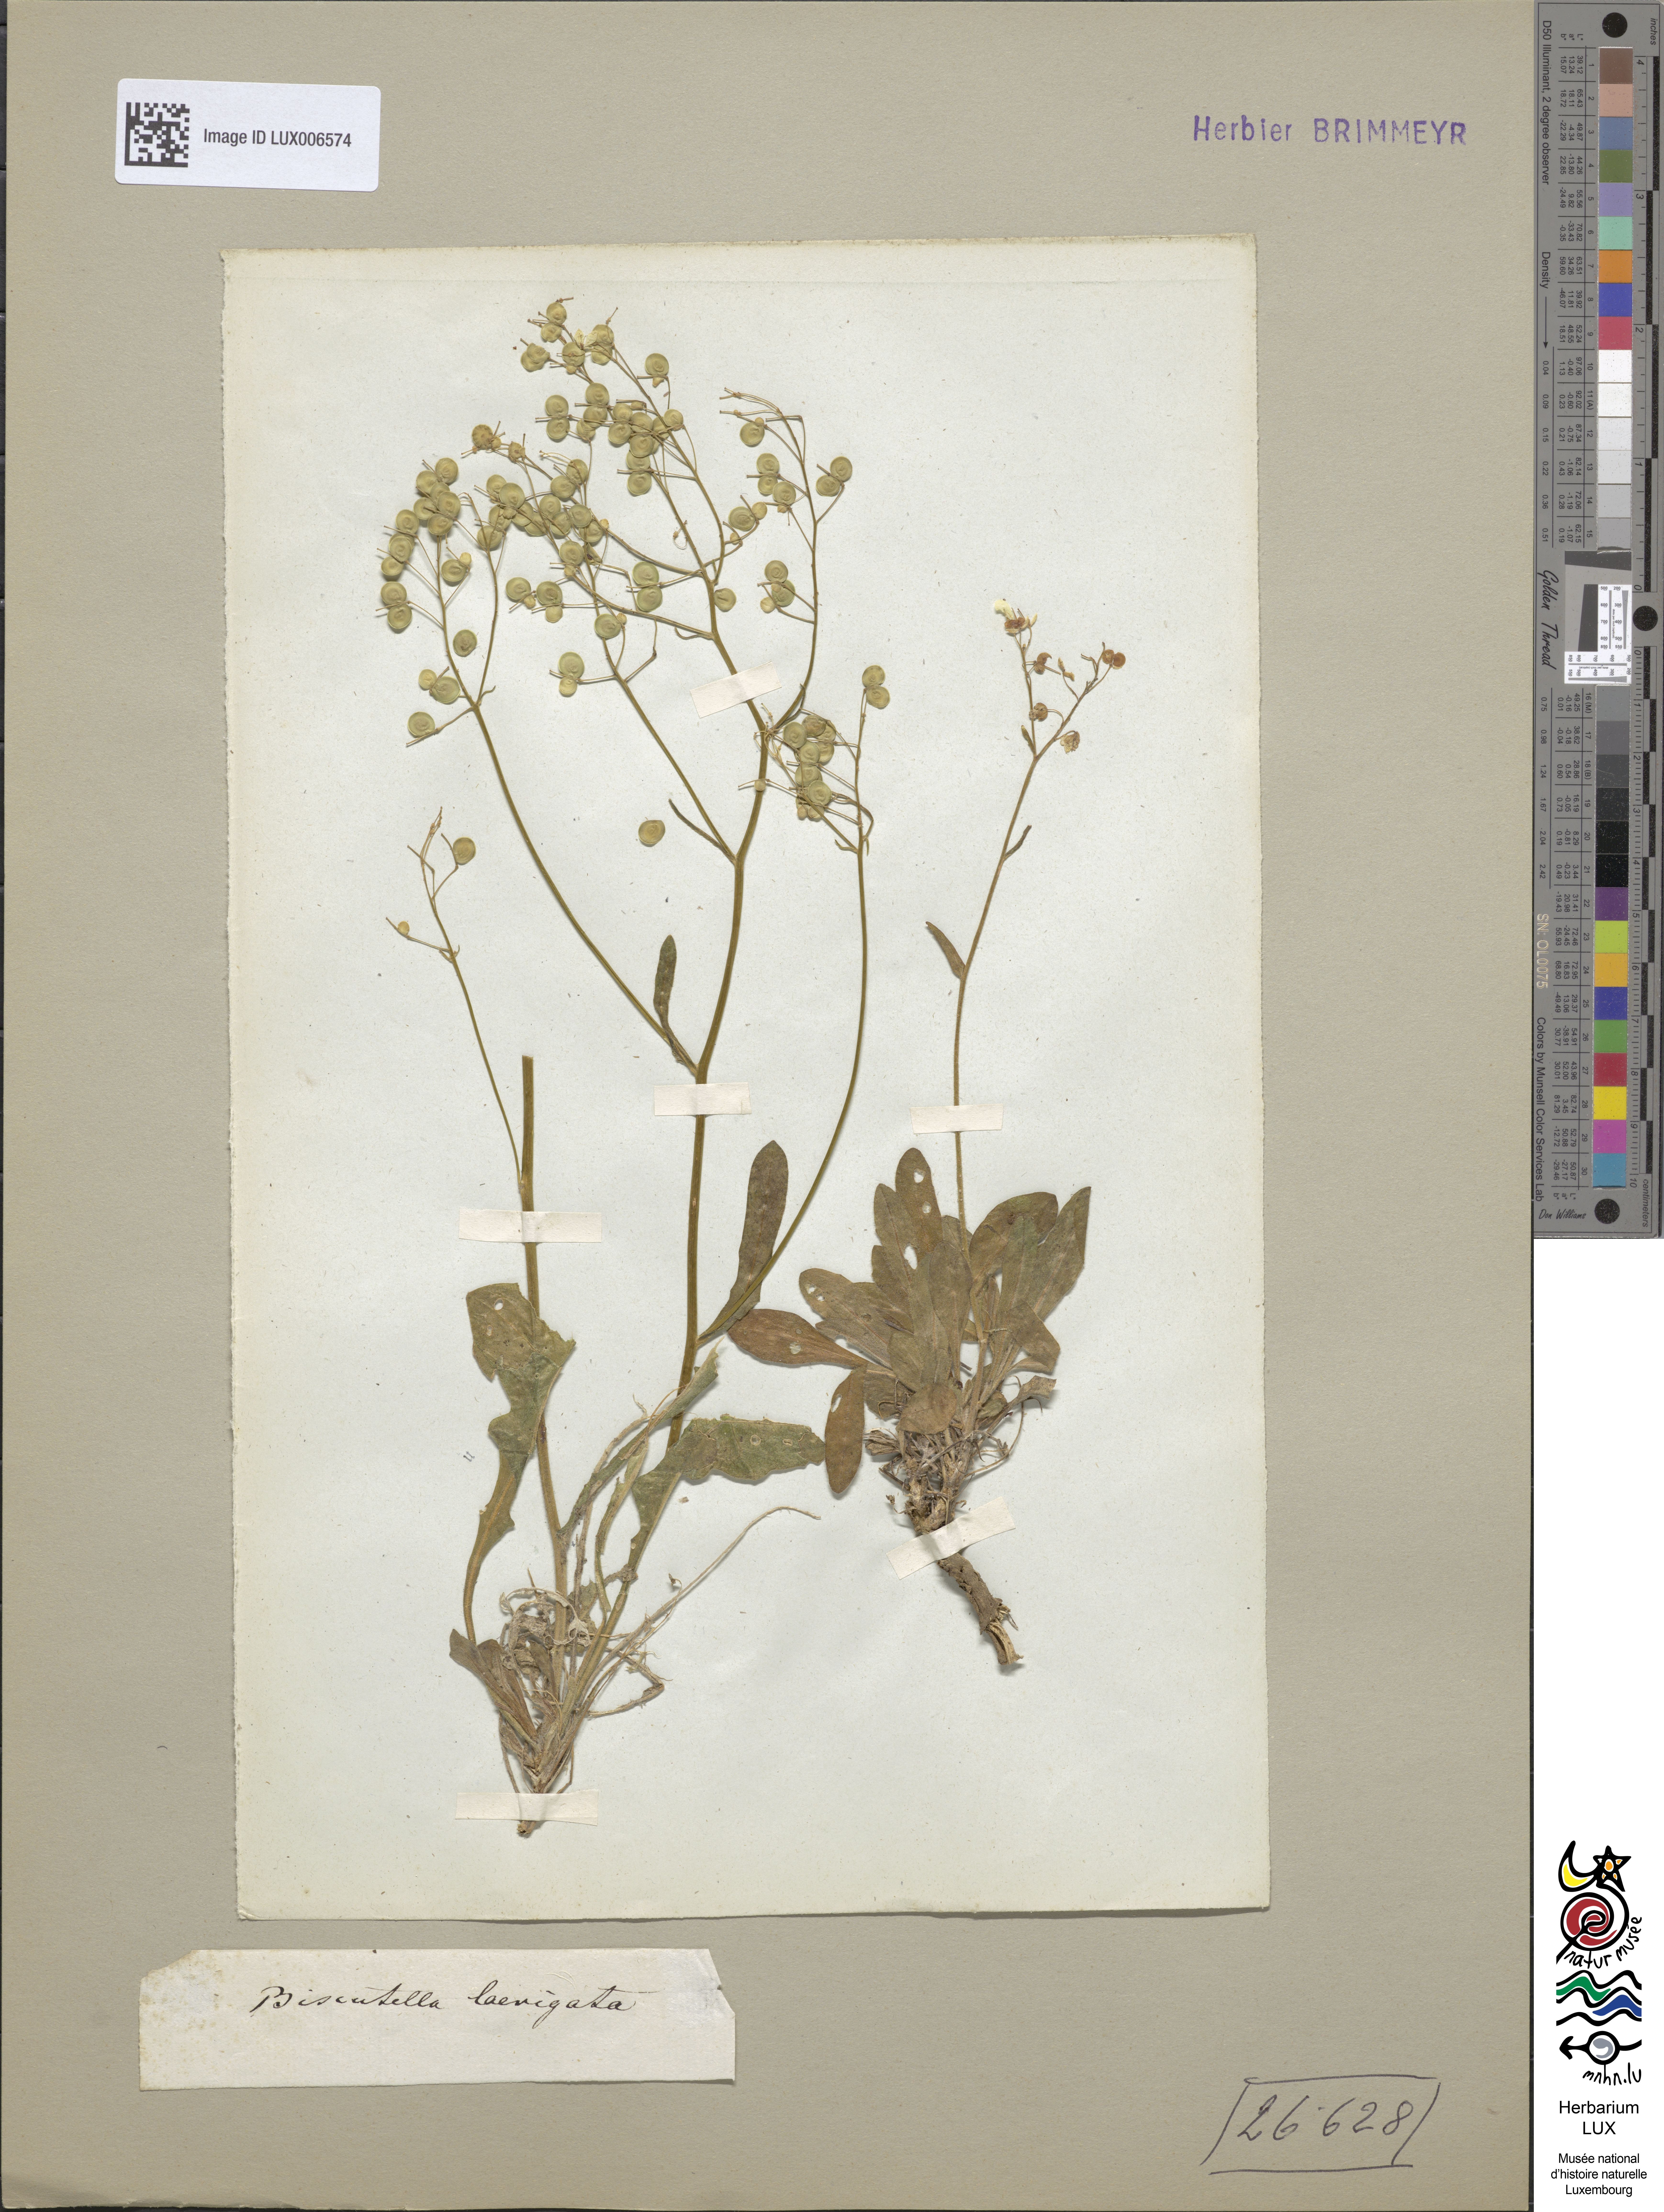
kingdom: Plantae
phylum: Tracheophyta
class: Magnoliopsida
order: Brassicales
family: Brassicaceae
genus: Biscutella
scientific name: Biscutella laevigata
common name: Buckler mustard
